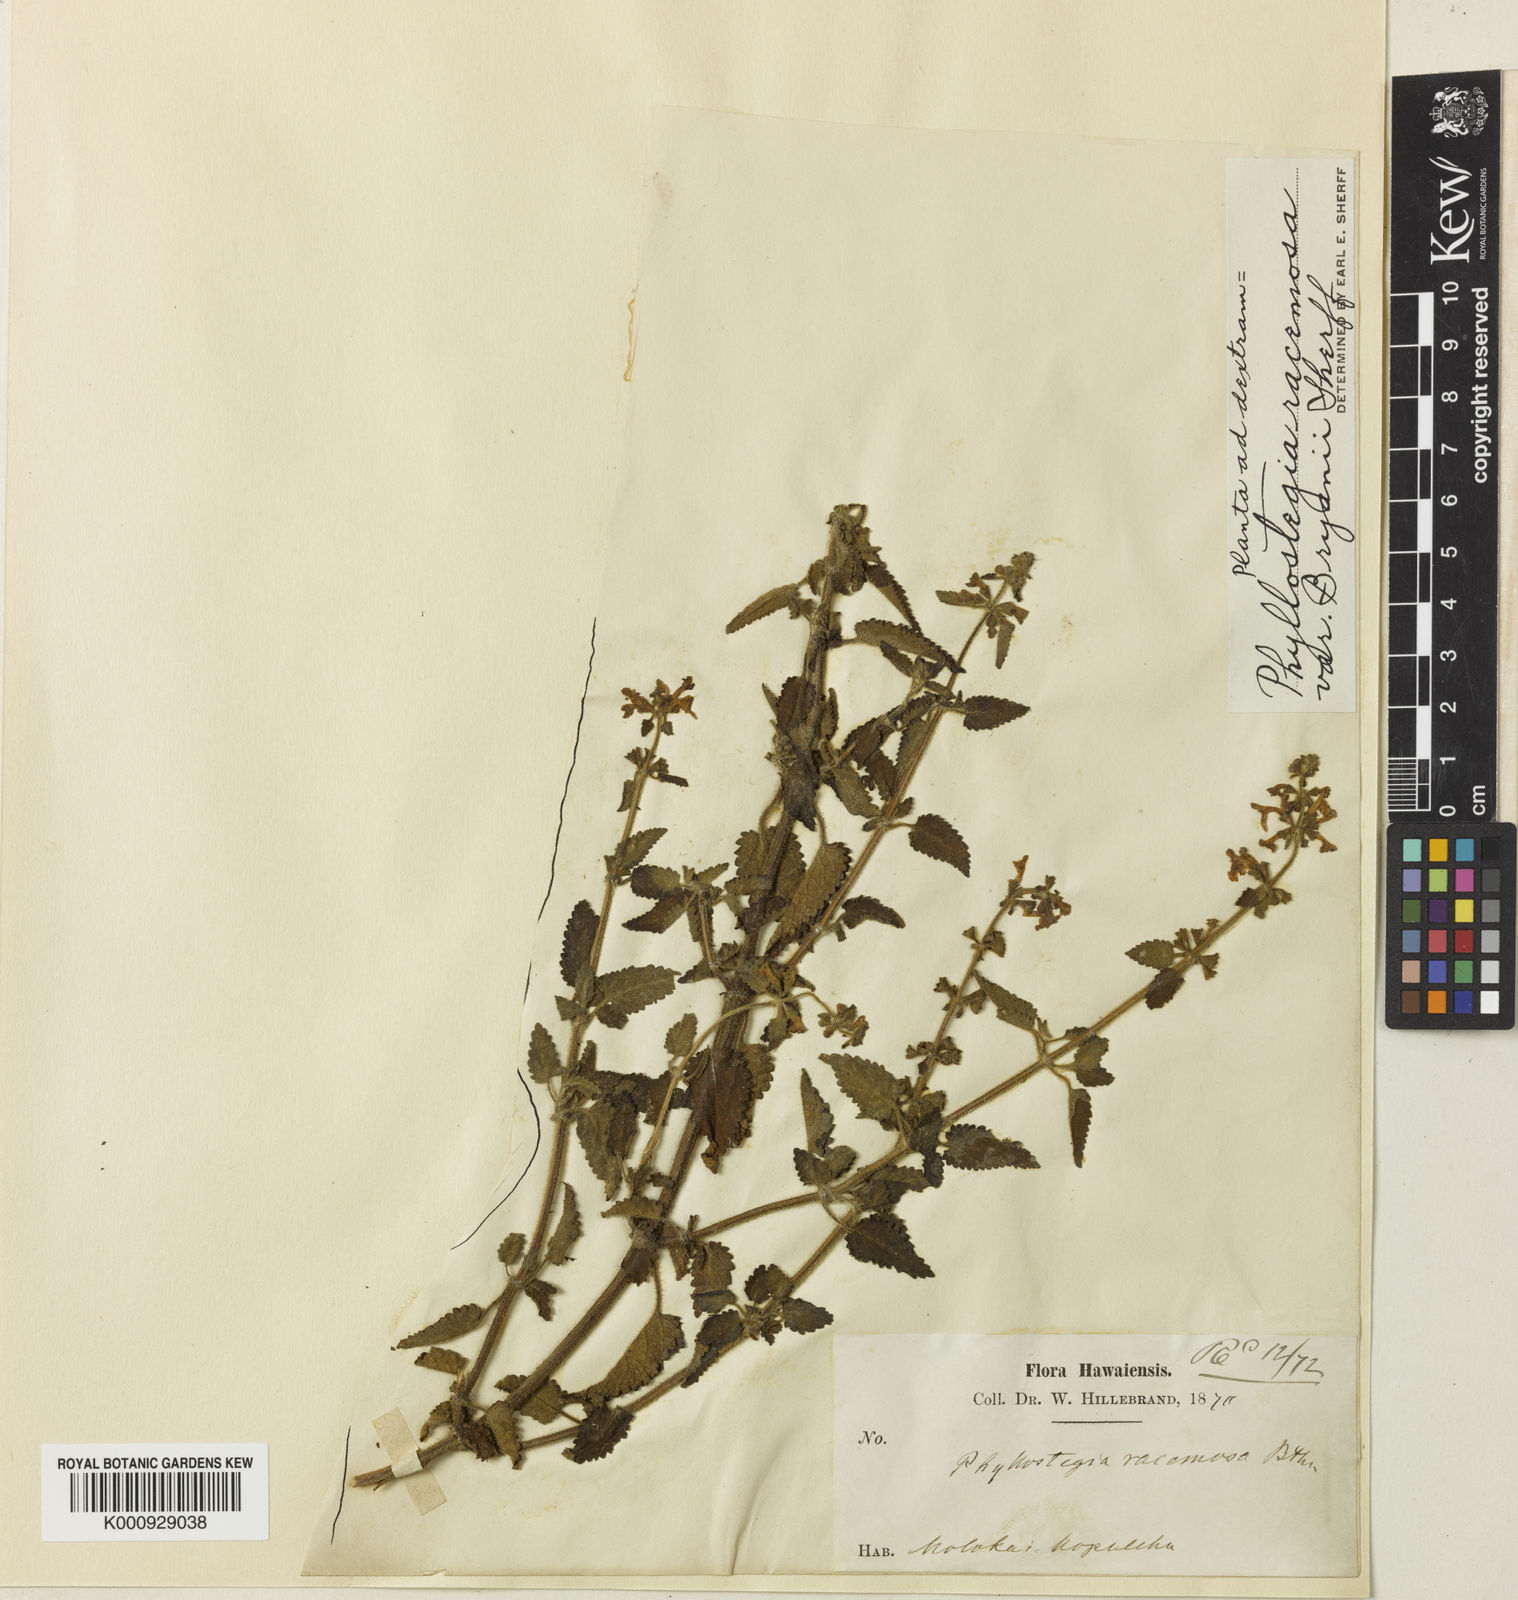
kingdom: Plantae
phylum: Tracheophyta
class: Magnoliopsida
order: Lamiales
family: Lamiaceae
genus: Phyllostegia
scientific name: Phyllostegia hispida
